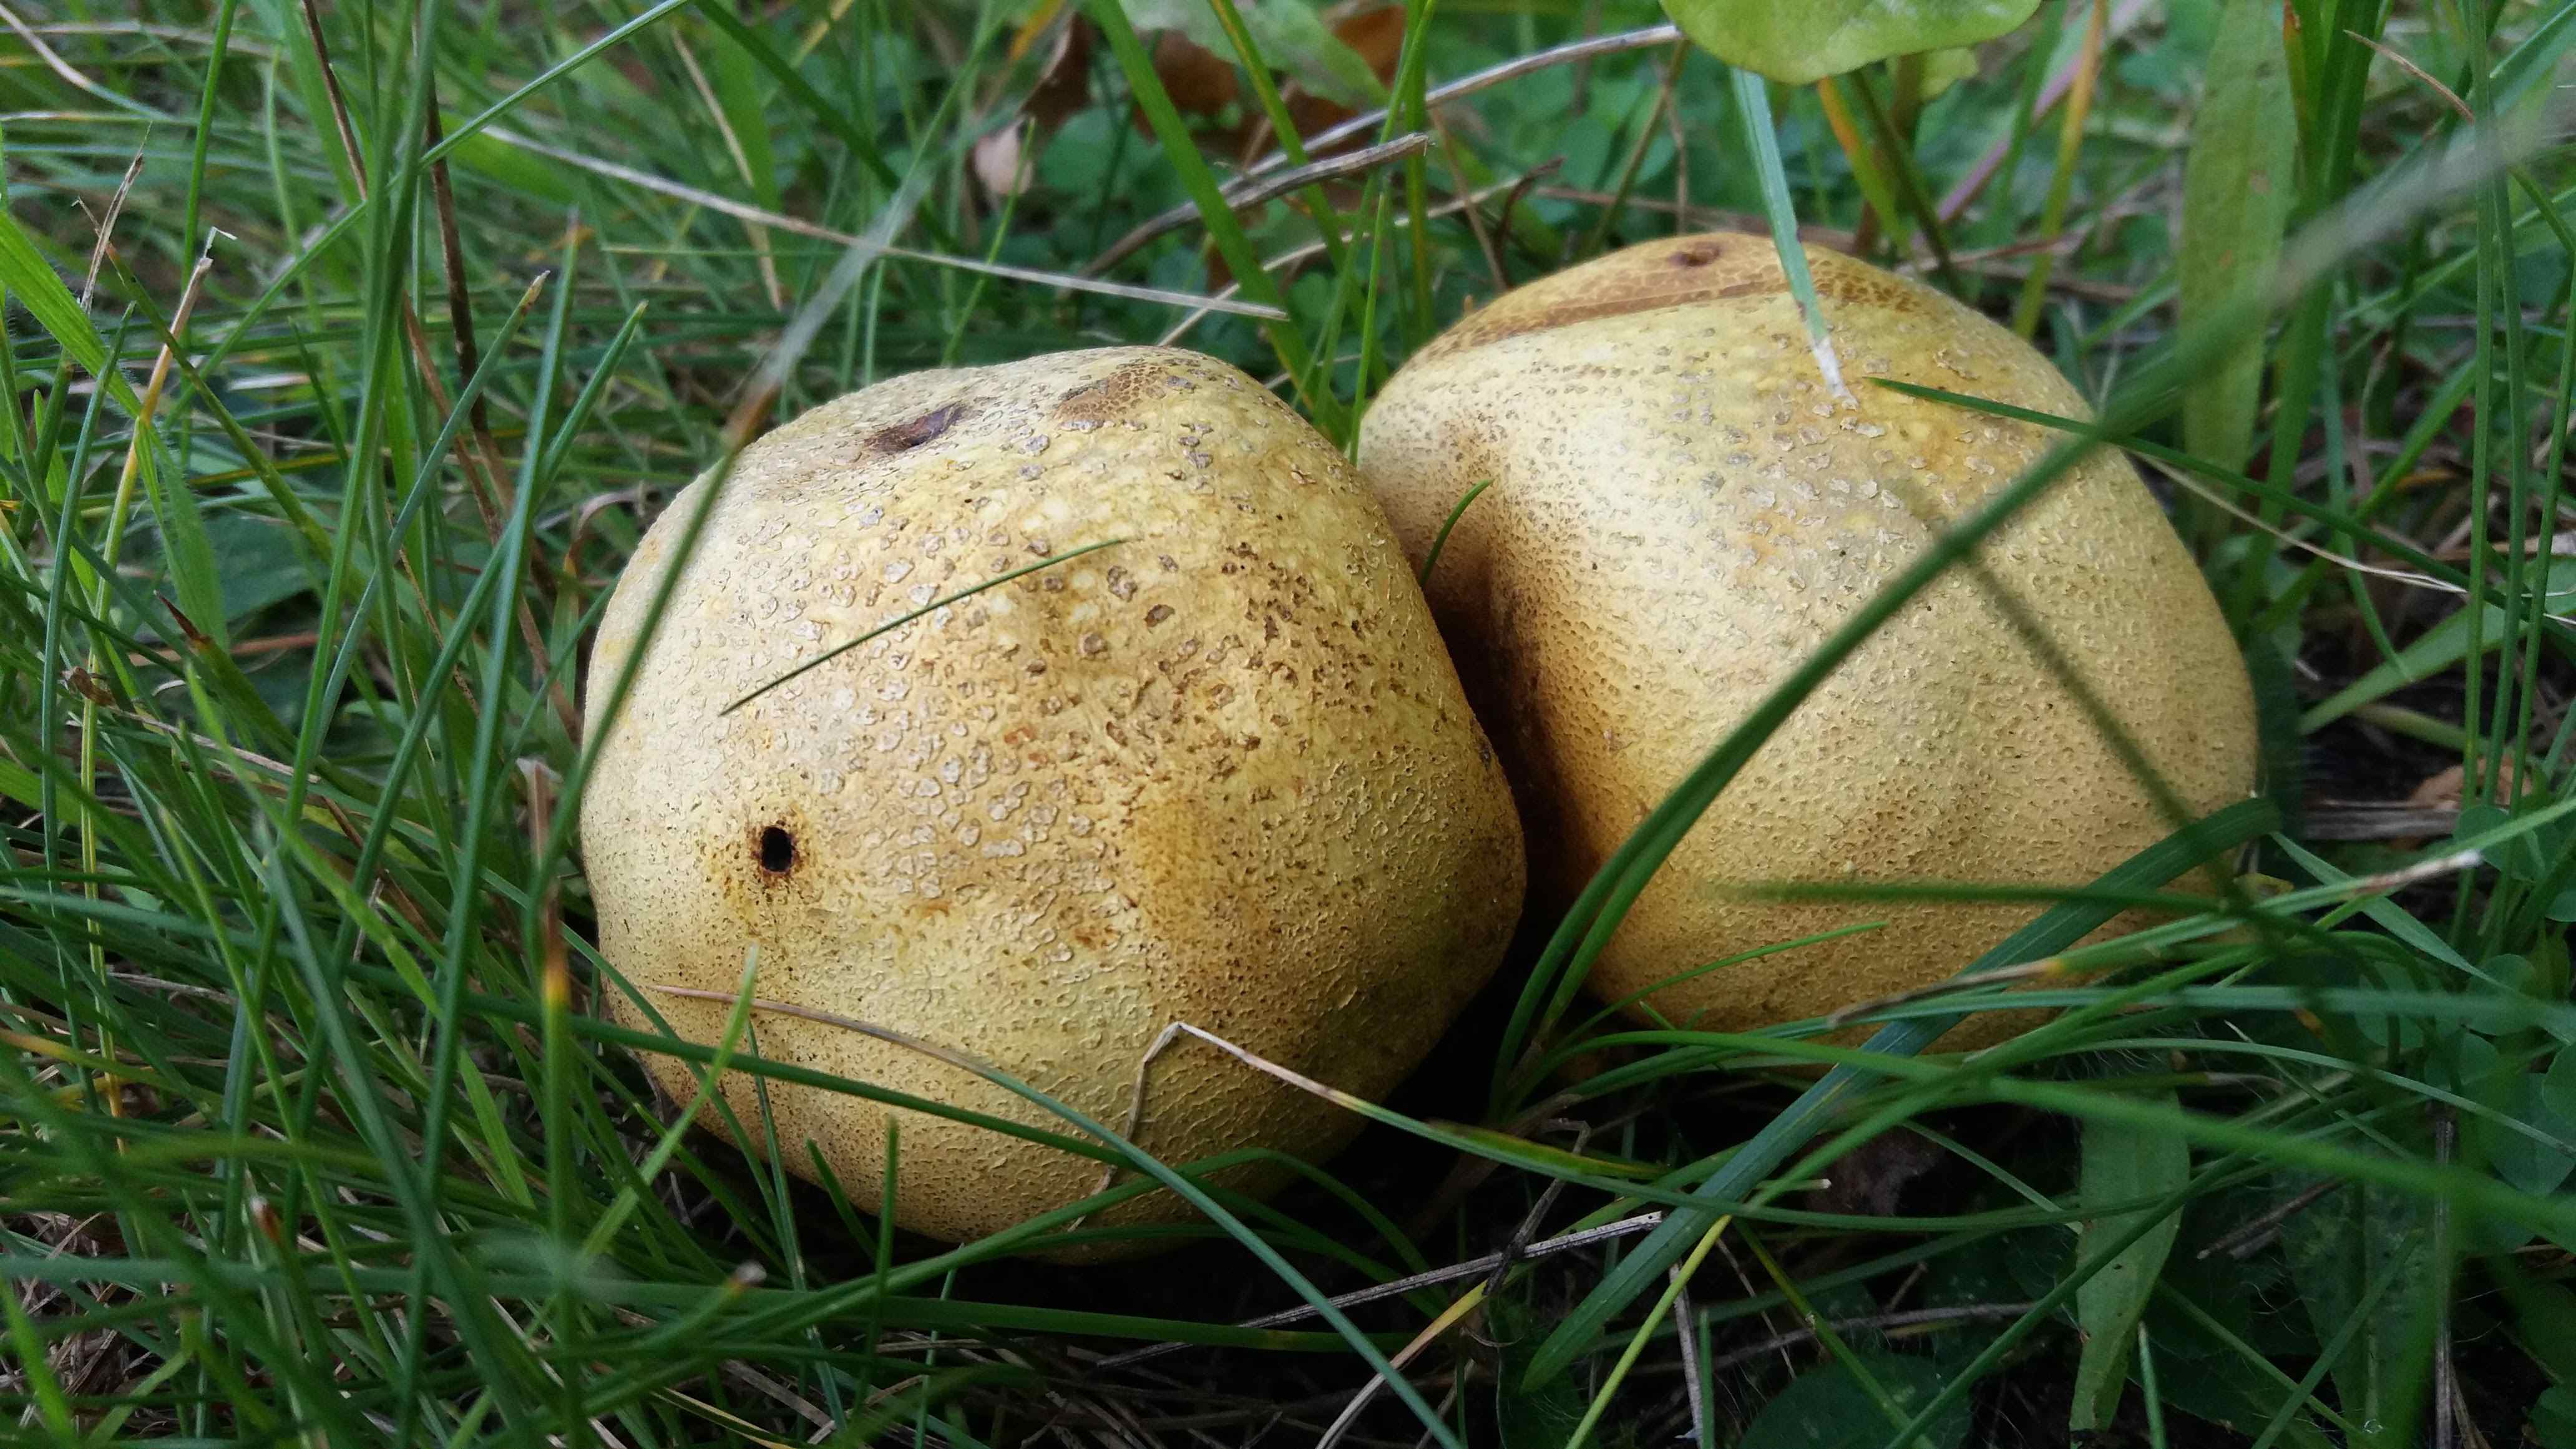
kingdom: Fungi
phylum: Basidiomycota
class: Agaricomycetes
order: Boletales
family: Sclerodermataceae
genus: Scleroderma
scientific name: Scleroderma citrinum
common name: almindelig bruskbold
